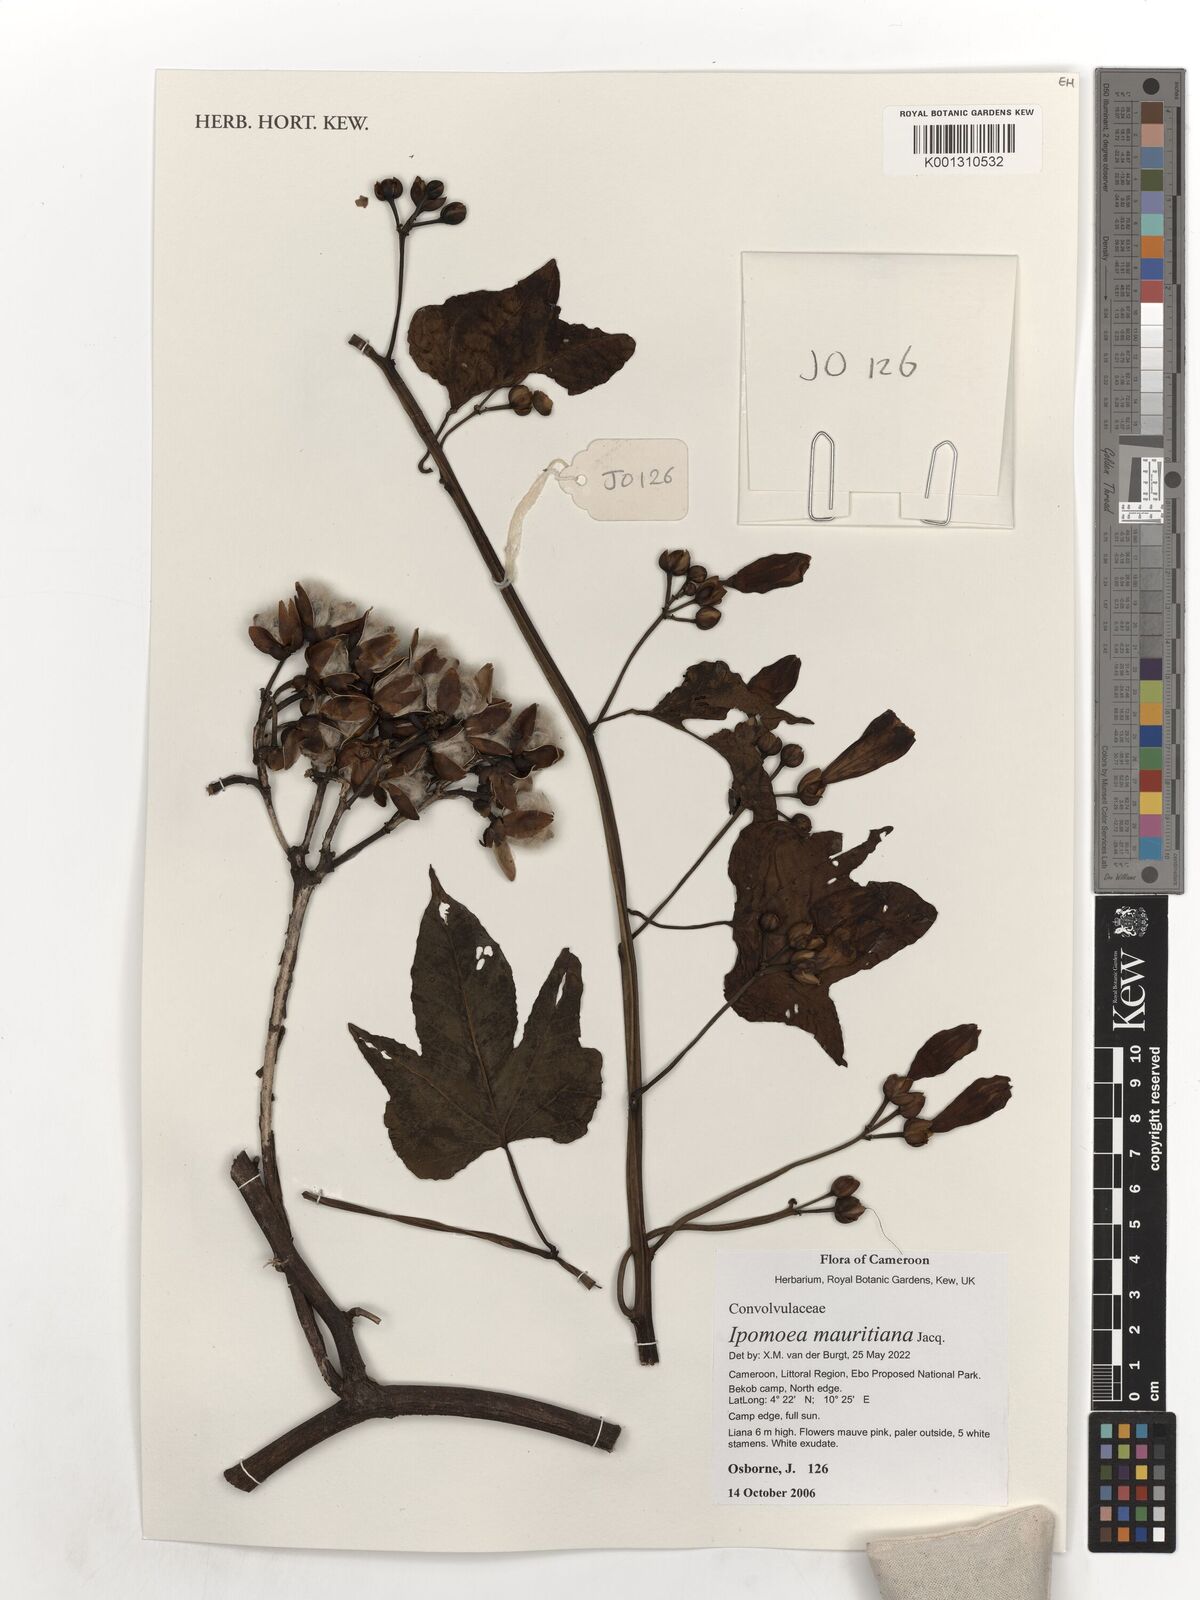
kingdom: Plantae
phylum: Tracheophyta
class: Magnoliopsida
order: Solanales
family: Convolvulaceae
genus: Ipomoea
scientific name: Ipomoea mauritiana
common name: Mauritanian convolvulus
